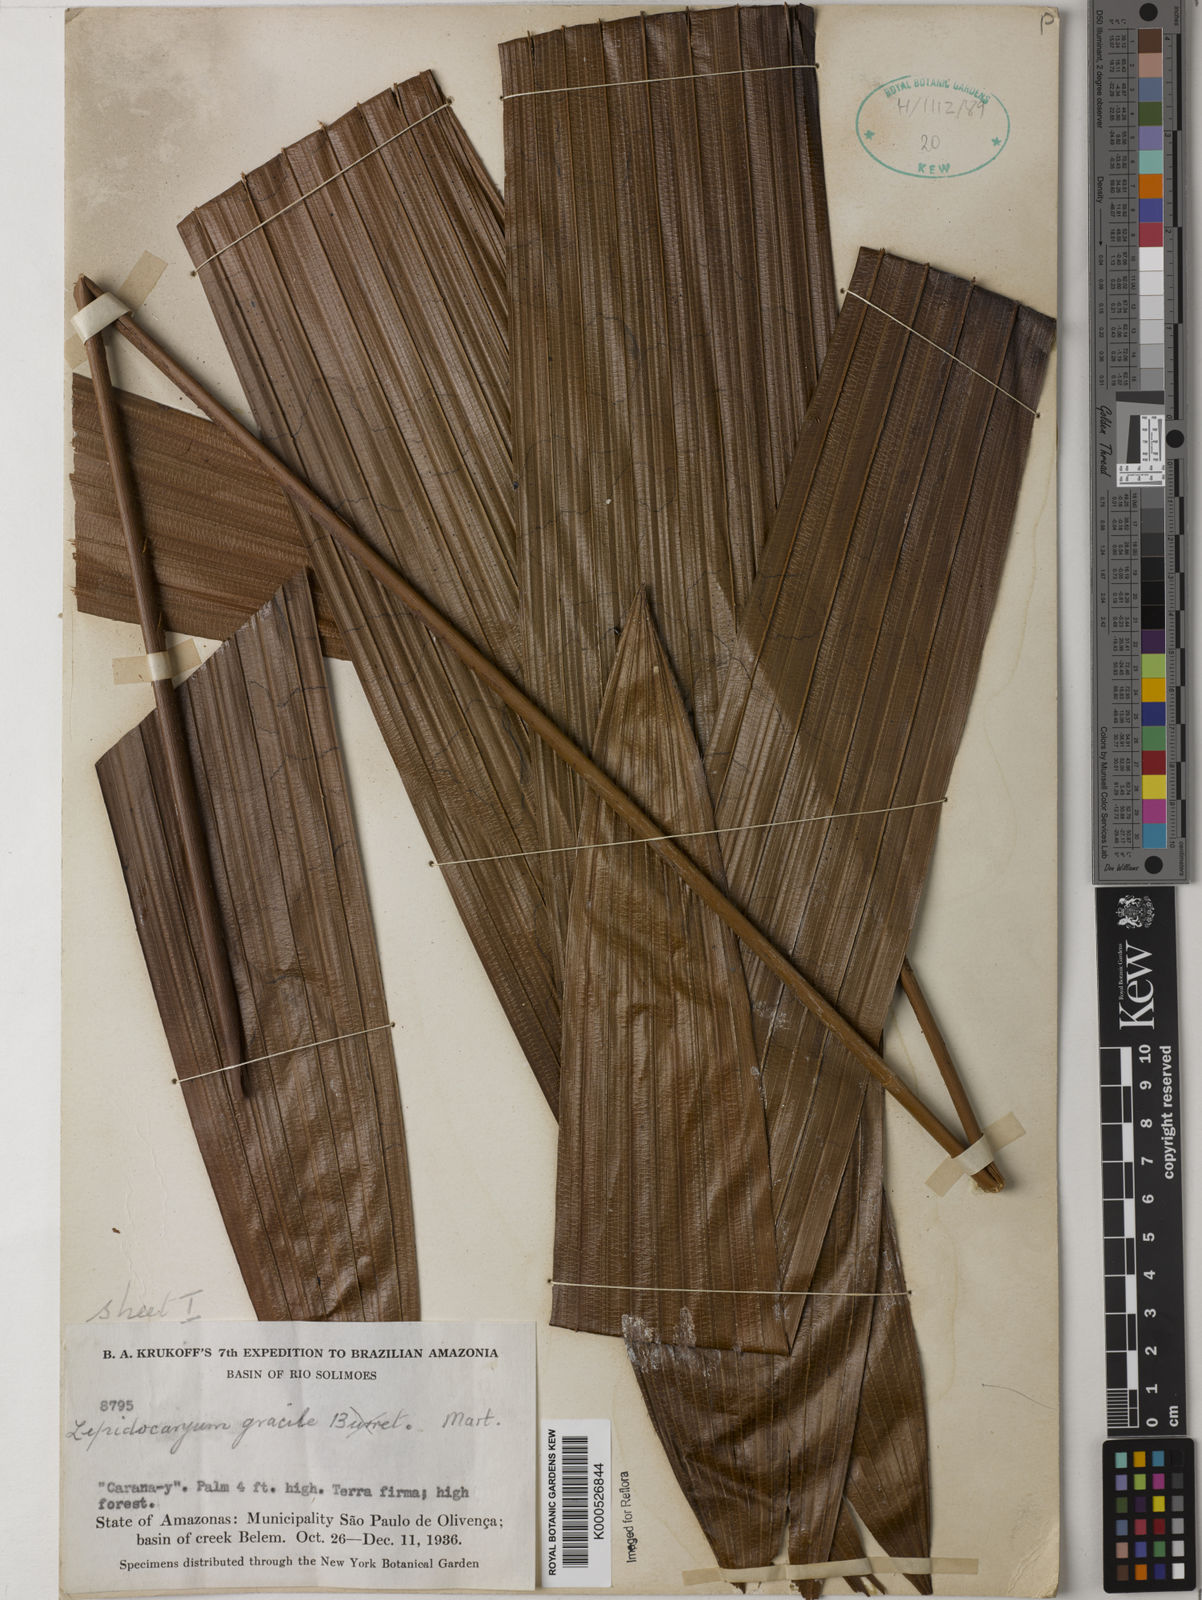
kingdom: Plantae
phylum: Tracheophyta
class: Liliopsida
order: Arecales
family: Arecaceae
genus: Lepidocaryum
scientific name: Lepidocaryum tenue
